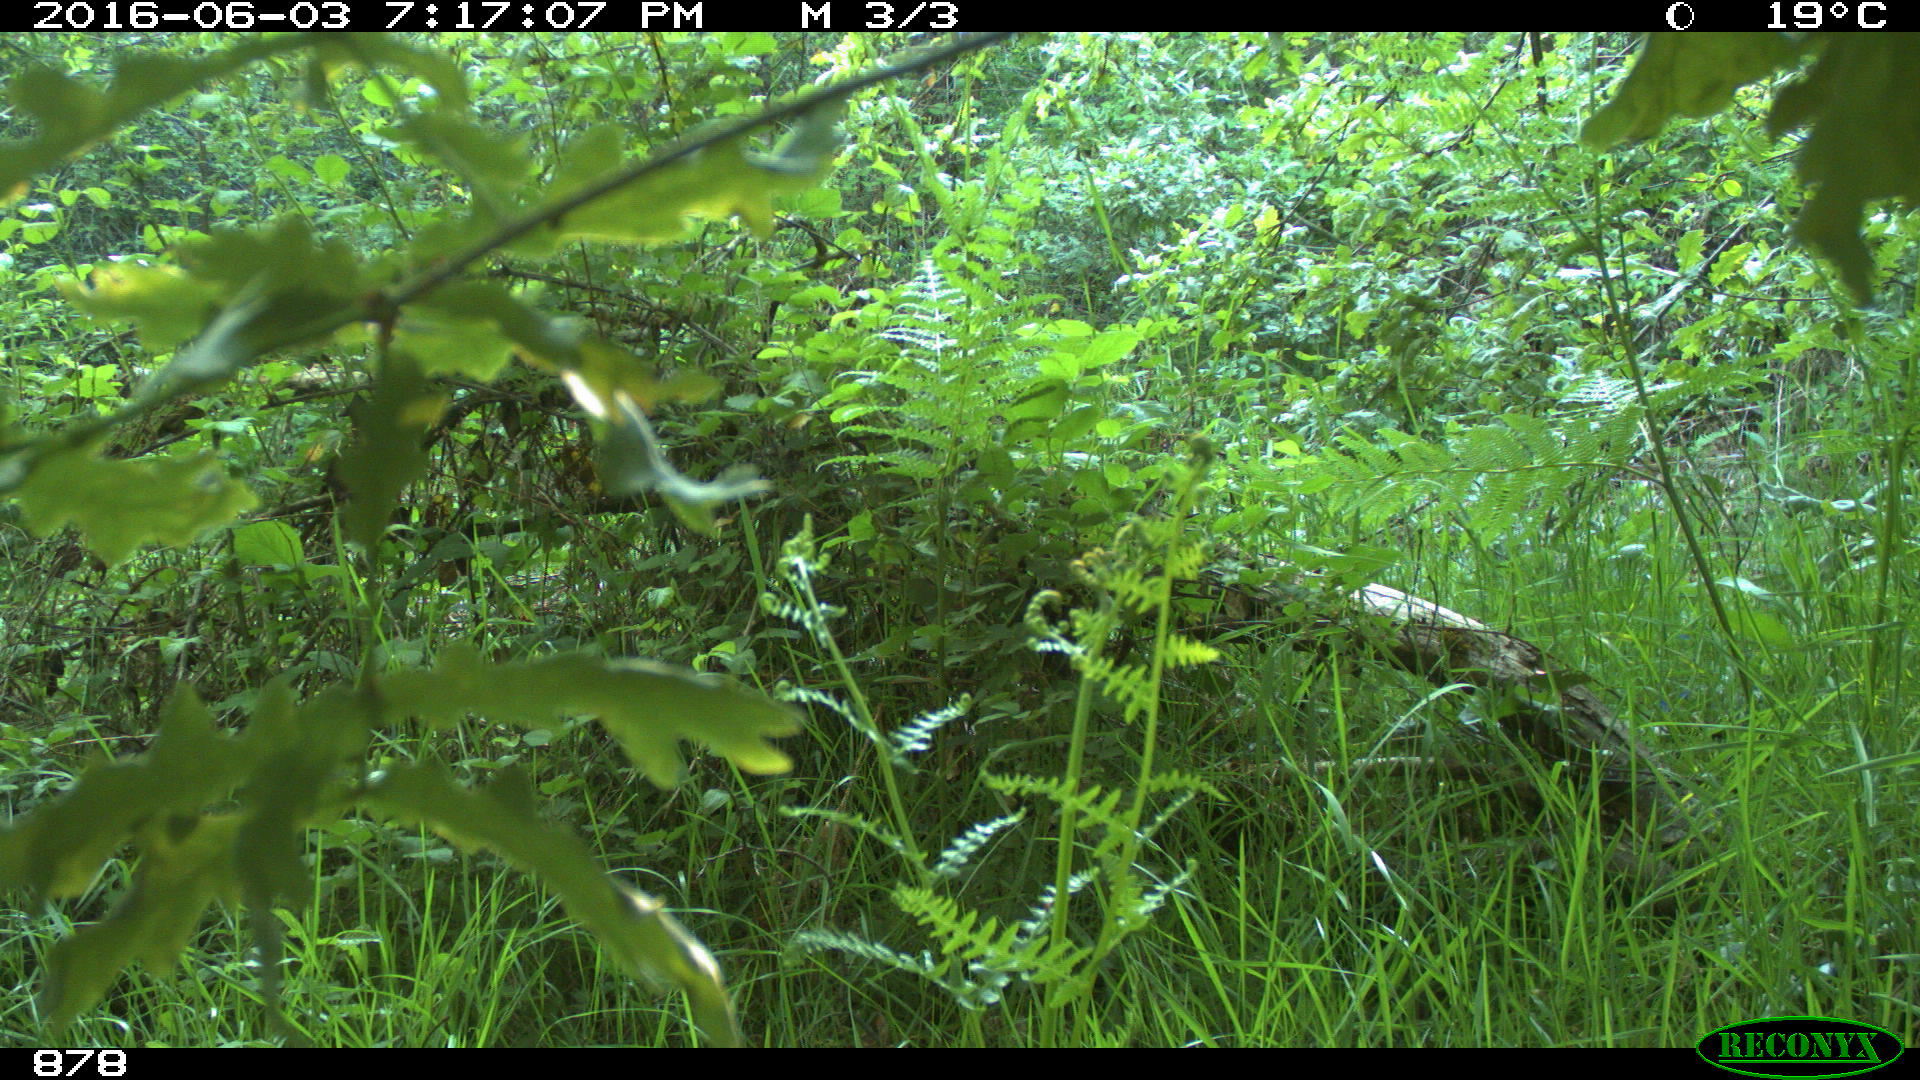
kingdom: Animalia
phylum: Chordata
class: Mammalia
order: Carnivora
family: Canidae
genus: Vulpes
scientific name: Vulpes vulpes
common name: Red fox
